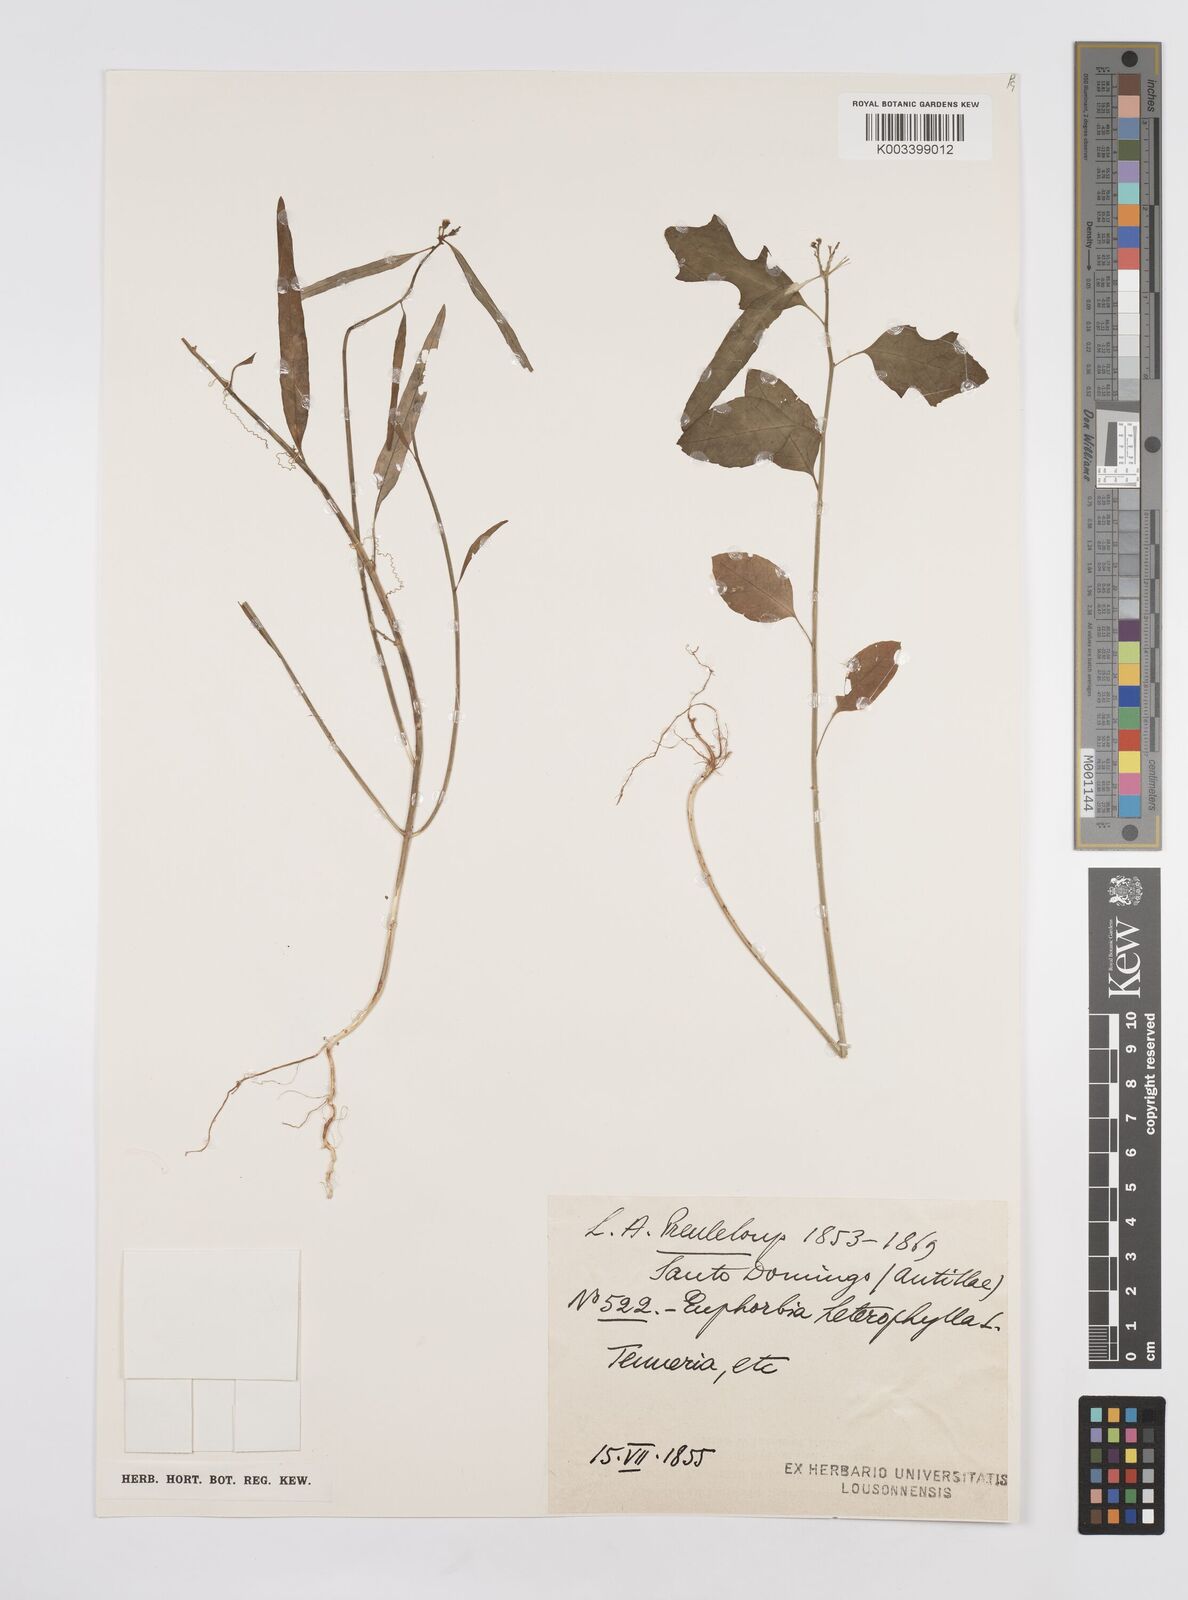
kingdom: Plantae
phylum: Tracheophyta
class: Magnoliopsida
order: Malpighiales
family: Euphorbiaceae
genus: Euphorbia
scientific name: Euphorbia heterophylla
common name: Mexican fireplant
